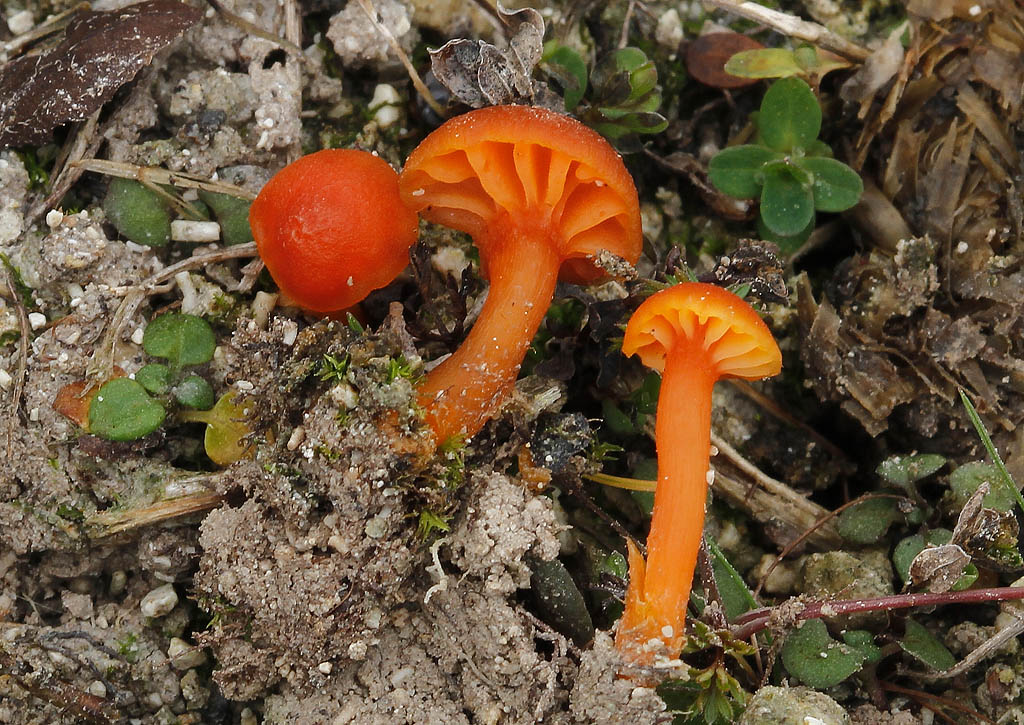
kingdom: Fungi
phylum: Basidiomycota
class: Agaricomycetes
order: Agaricales
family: Hygrophoraceae
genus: Hygrocybe
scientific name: Hygrocybe calciphila
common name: kalk-vokshat
